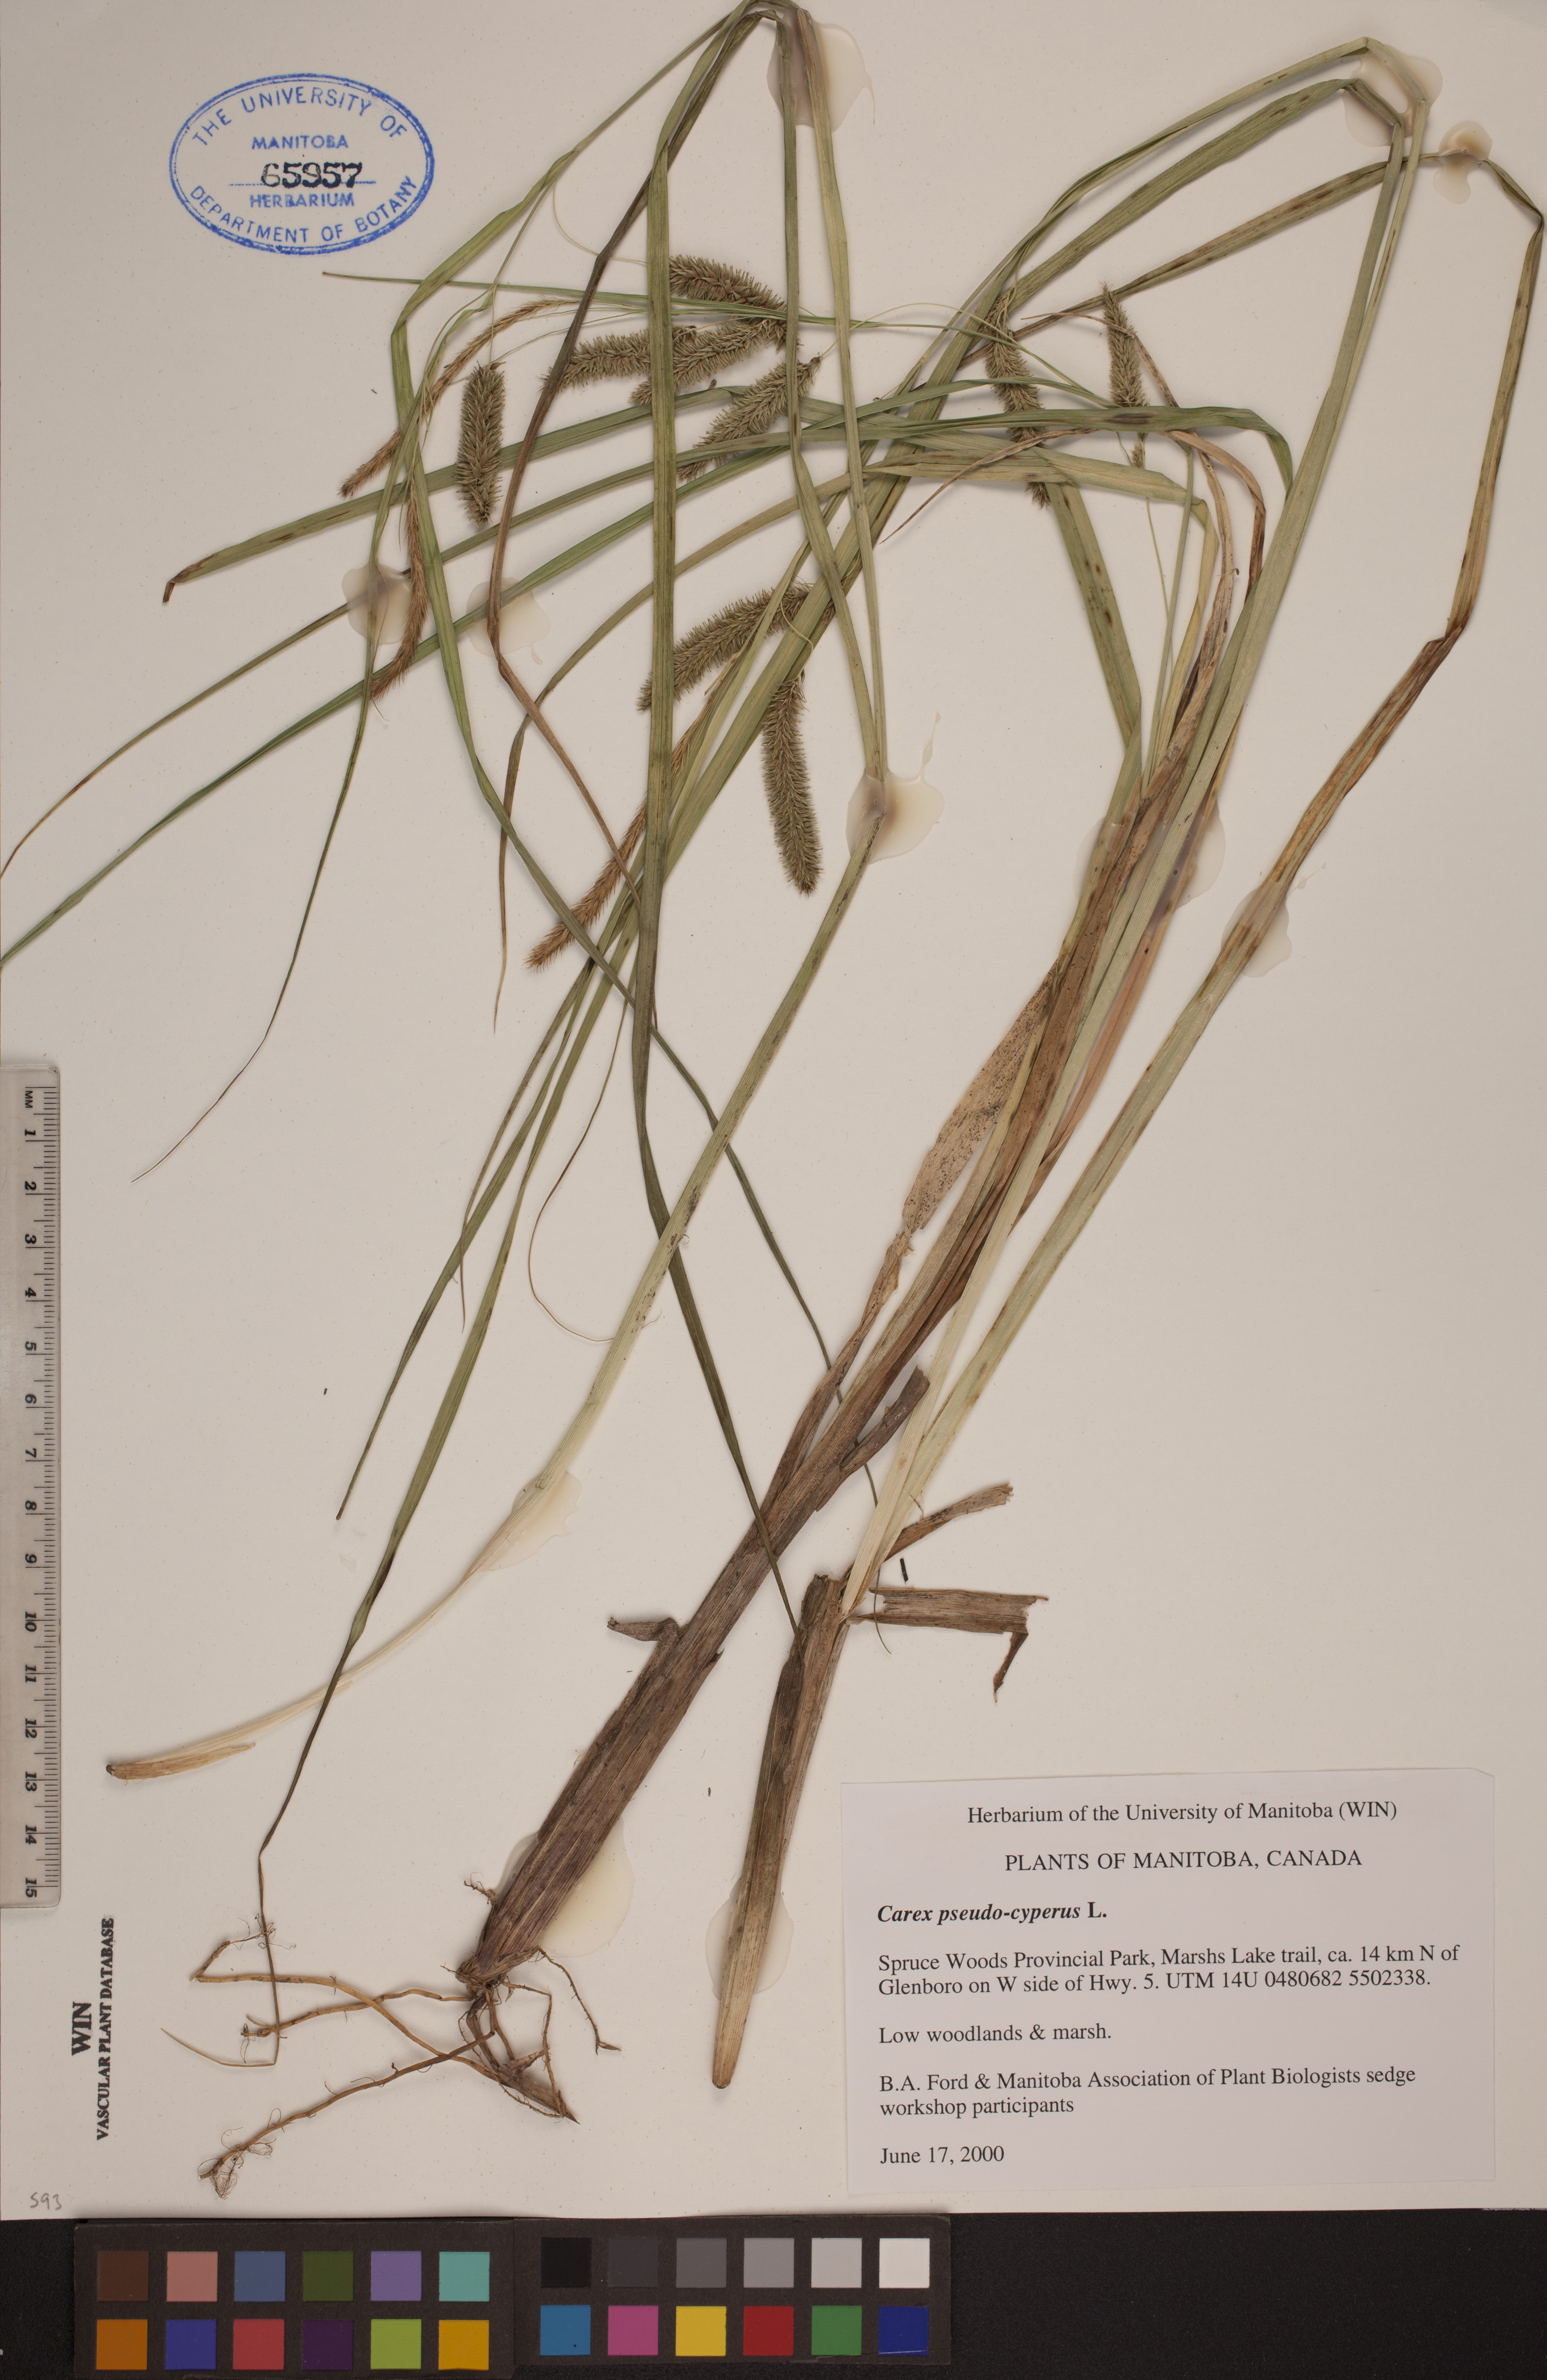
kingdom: Plantae
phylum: Tracheophyta
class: Liliopsida
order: Poales
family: Cyperaceae
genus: Carex
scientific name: Carex pseudocyperus
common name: Cyperus sedge
